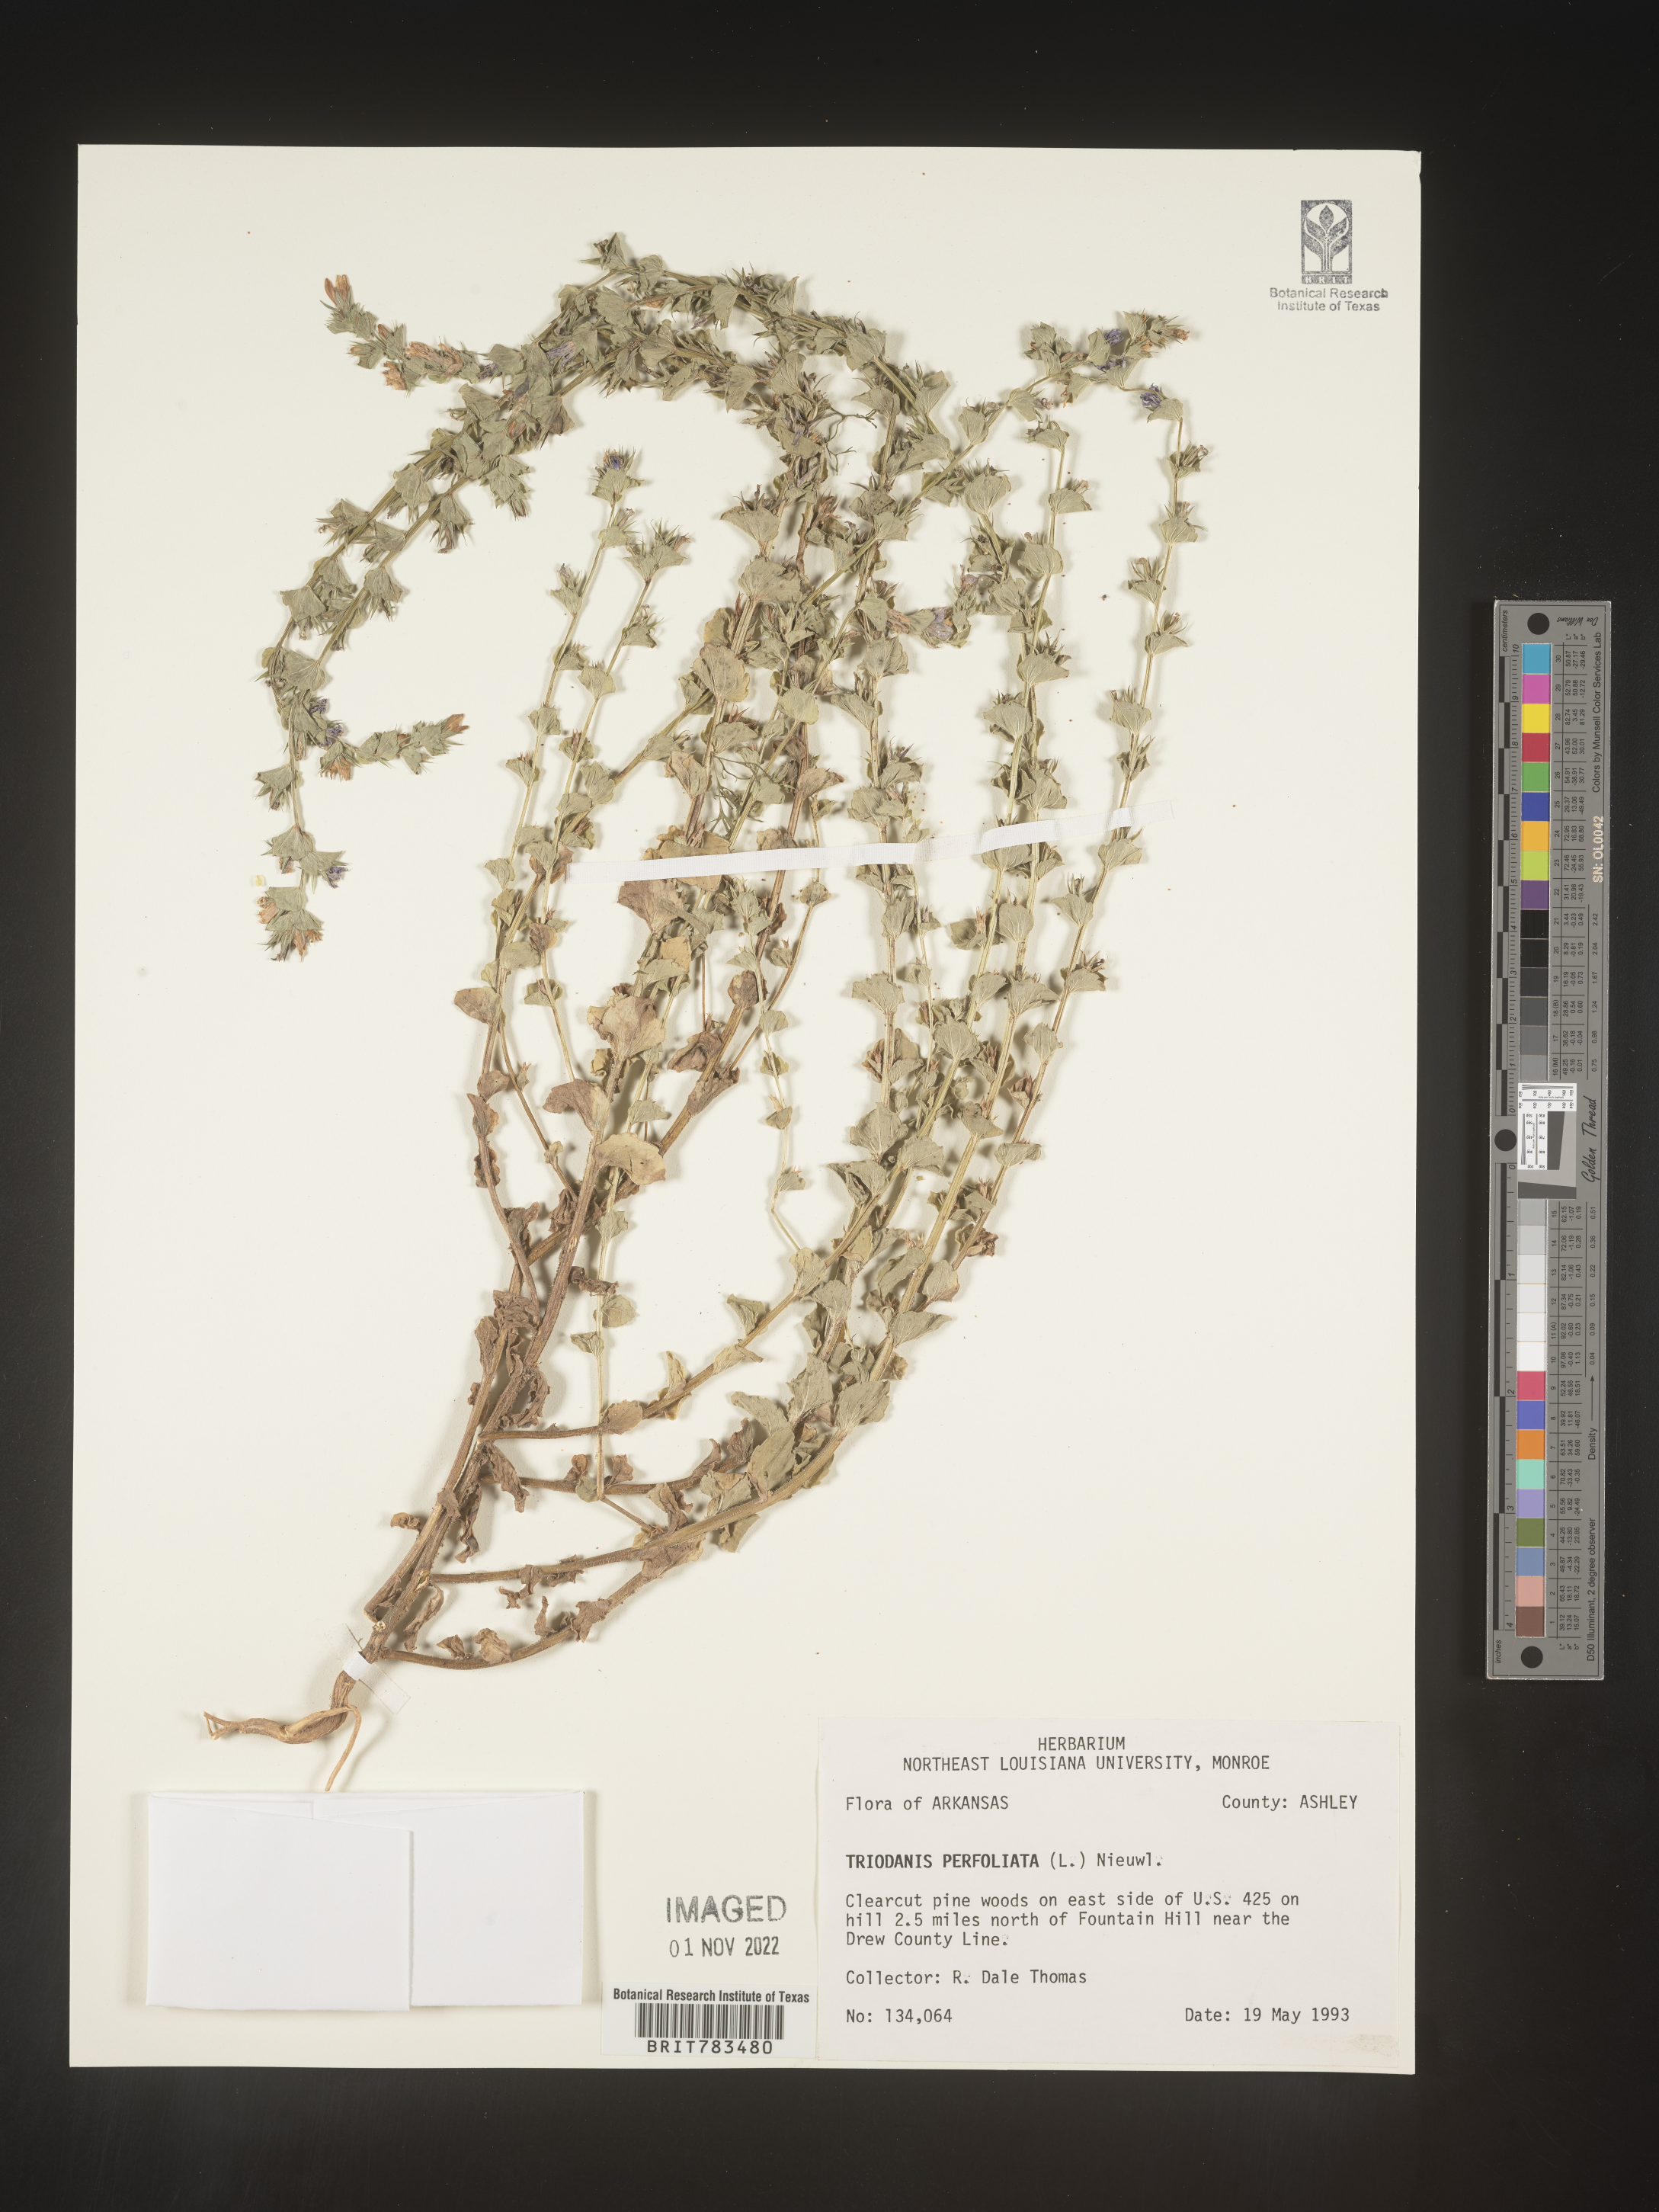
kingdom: Plantae
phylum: Tracheophyta
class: Magnoliopsida
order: Asterales
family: Campanulaceae
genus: Triodanis
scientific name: Triodanis perfoliata
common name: Clasping venus' looking-glass
